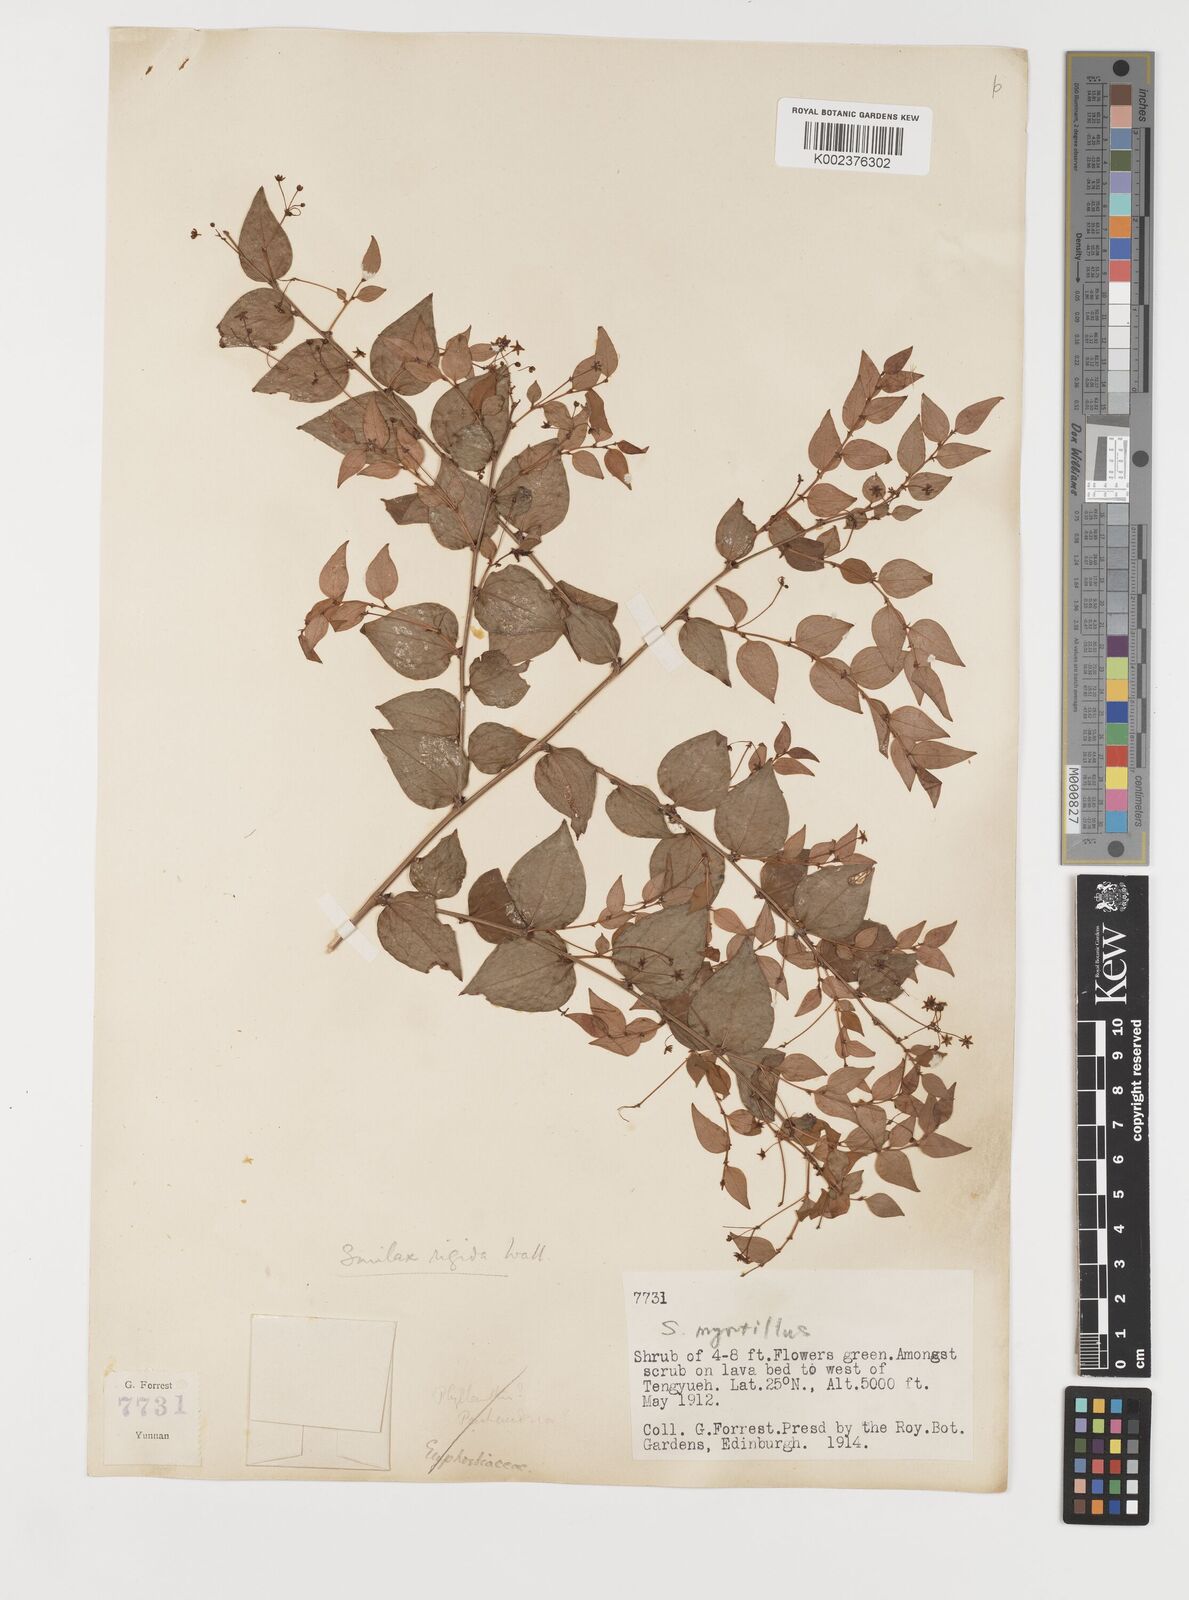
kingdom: Plantae
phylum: Tracheophyta
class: Liliopsida
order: Liliales
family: Smilacaceae
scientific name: Smilacaceae
